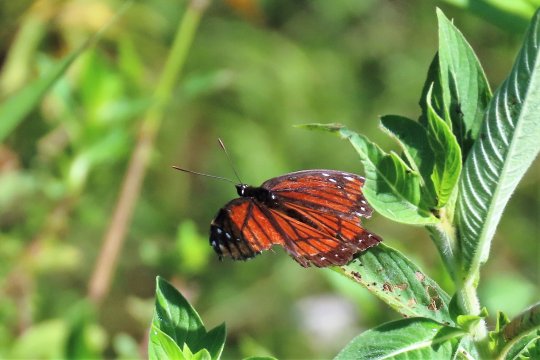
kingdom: Animalia
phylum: Arthropoda
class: Insecta
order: Lepidoptera
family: Nymphalidae
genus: Limenitis
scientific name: Limenitis archippus
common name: Viceroy
